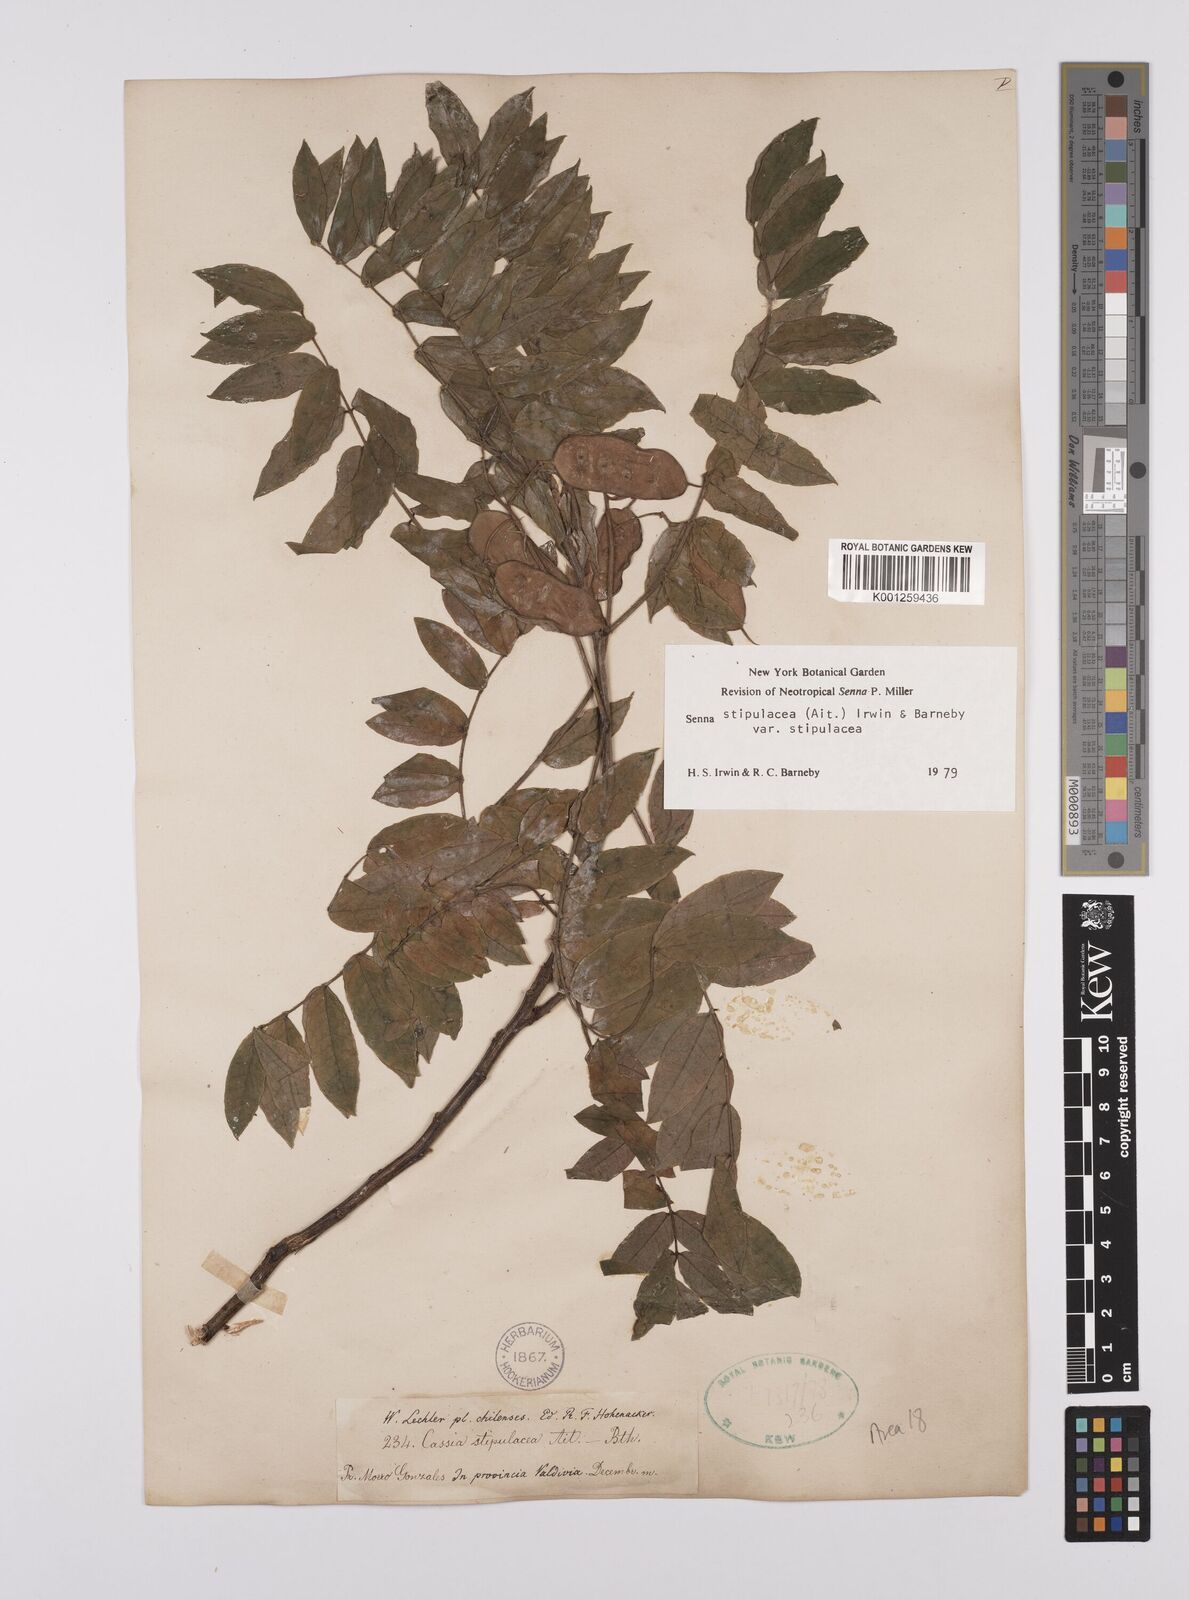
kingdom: Plantae
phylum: Tracheophyta
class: Magnoliopsida
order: Fabales
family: Fabaceae
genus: Senna
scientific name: Senna stipulacea
